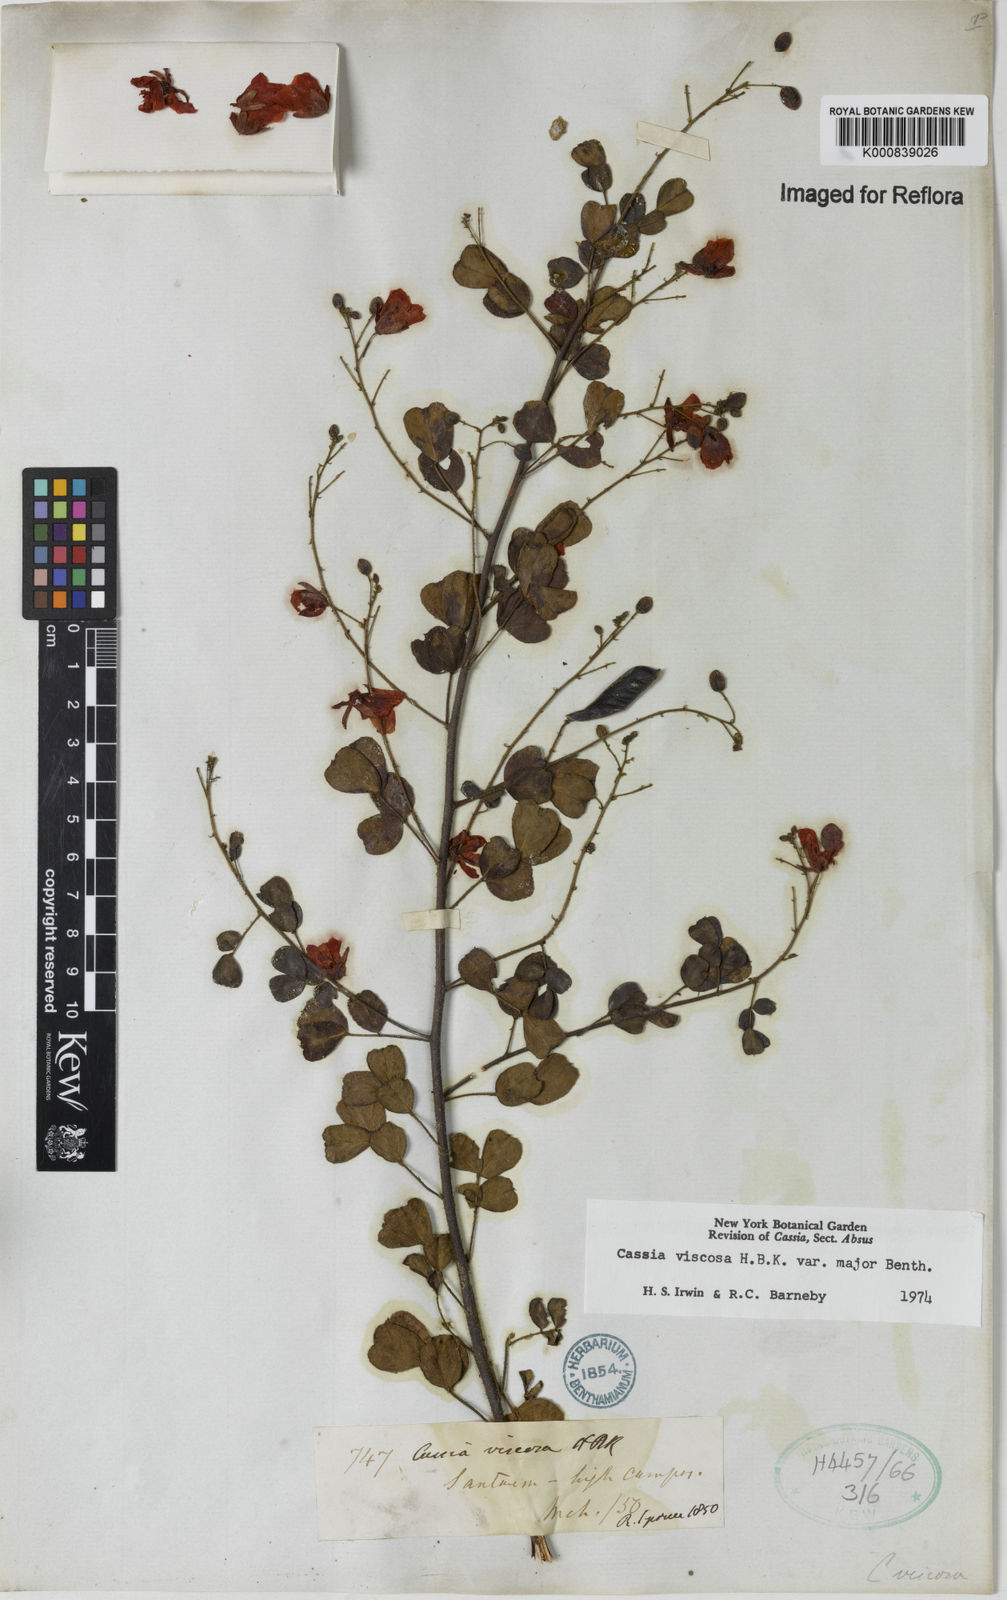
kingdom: Plantae
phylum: Tracheophyta
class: Magnoliopsida
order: Fabales
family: Fabaceae
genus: Chamaecrista
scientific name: Chamaecrista viscosa
